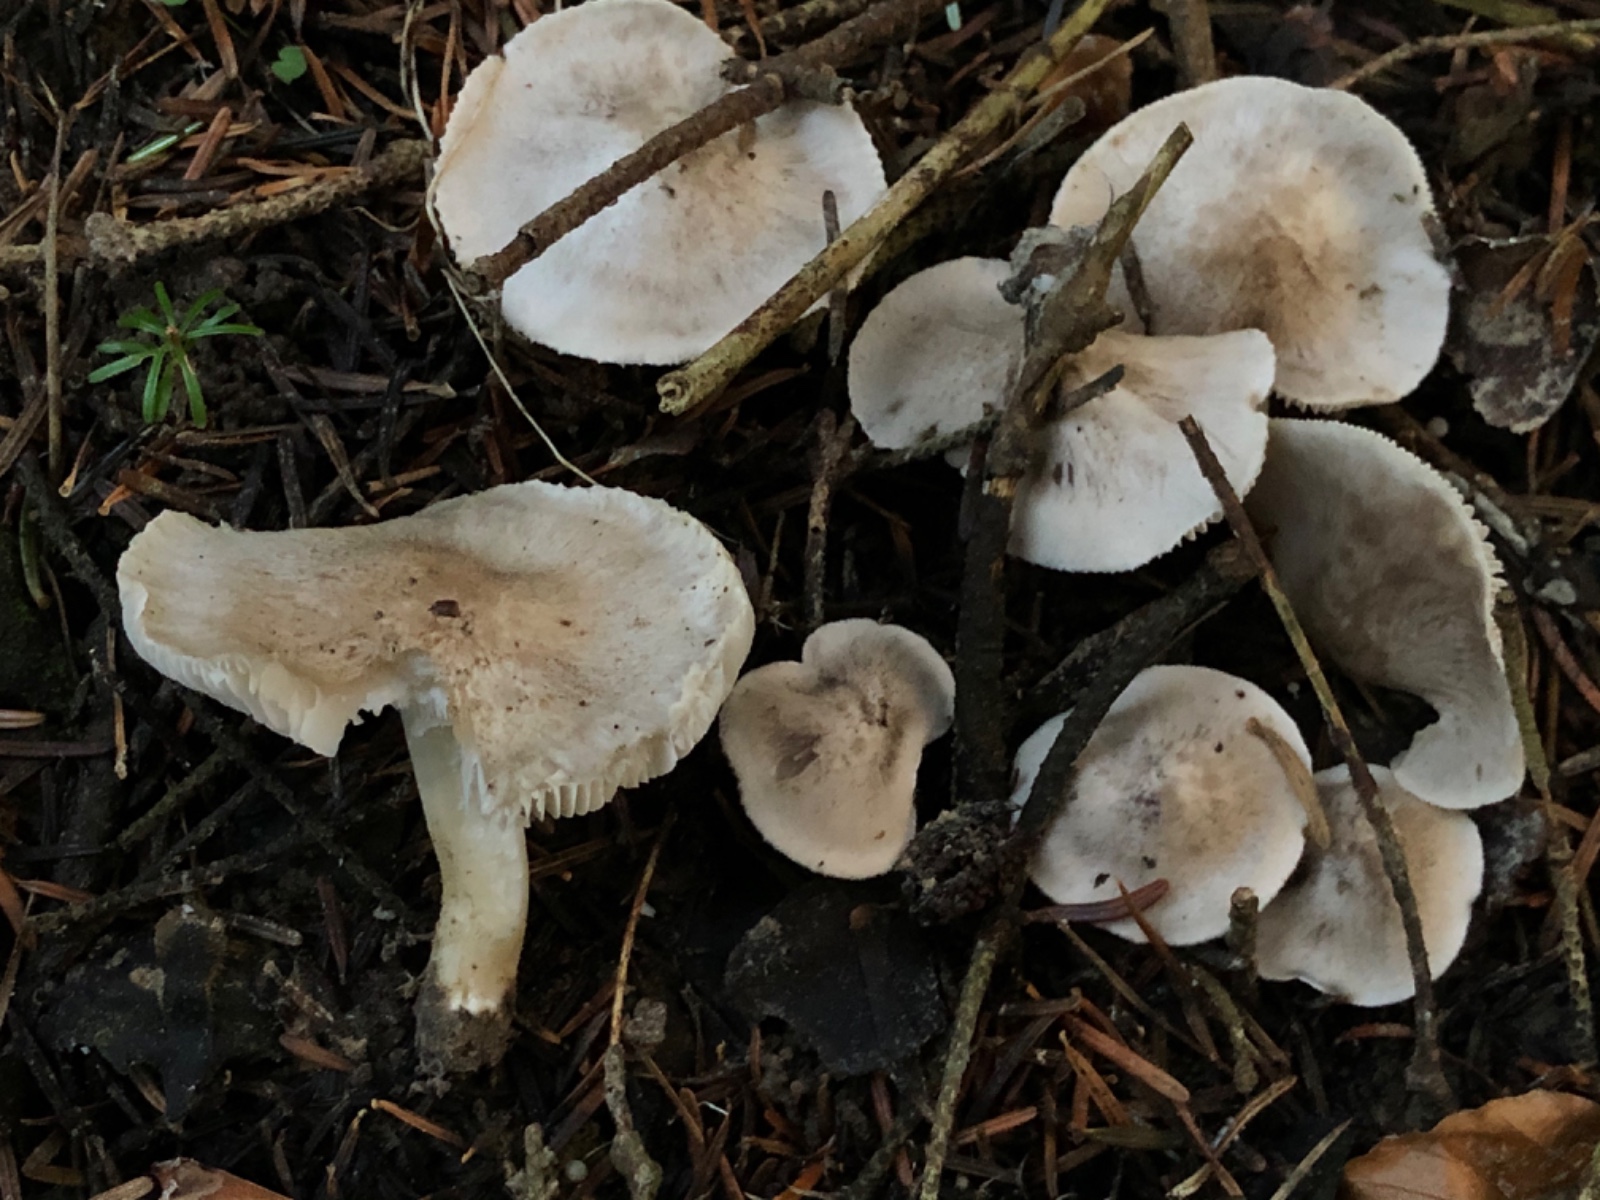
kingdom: Fungi
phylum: Basidiomycota
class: Agaricomycetes
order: Agaricales
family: Tricholomataceae
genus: Tricholoma
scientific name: Tricholoma scalpturatum
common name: gulplettet ridderhat
